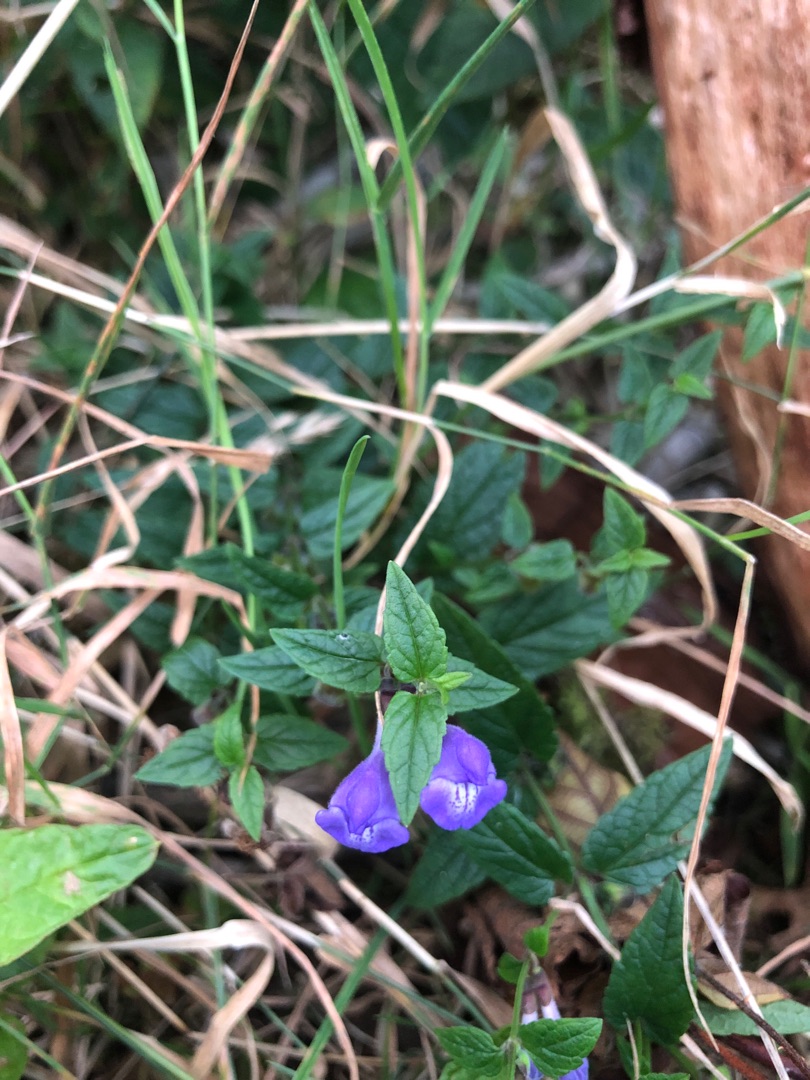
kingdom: Plantae
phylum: Tracheophyta
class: Magnoliopsida
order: Lamiales
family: Lamiaceae
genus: Scutellaria
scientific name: Scutellaria galericulata
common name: Almindelig skjolddrager
